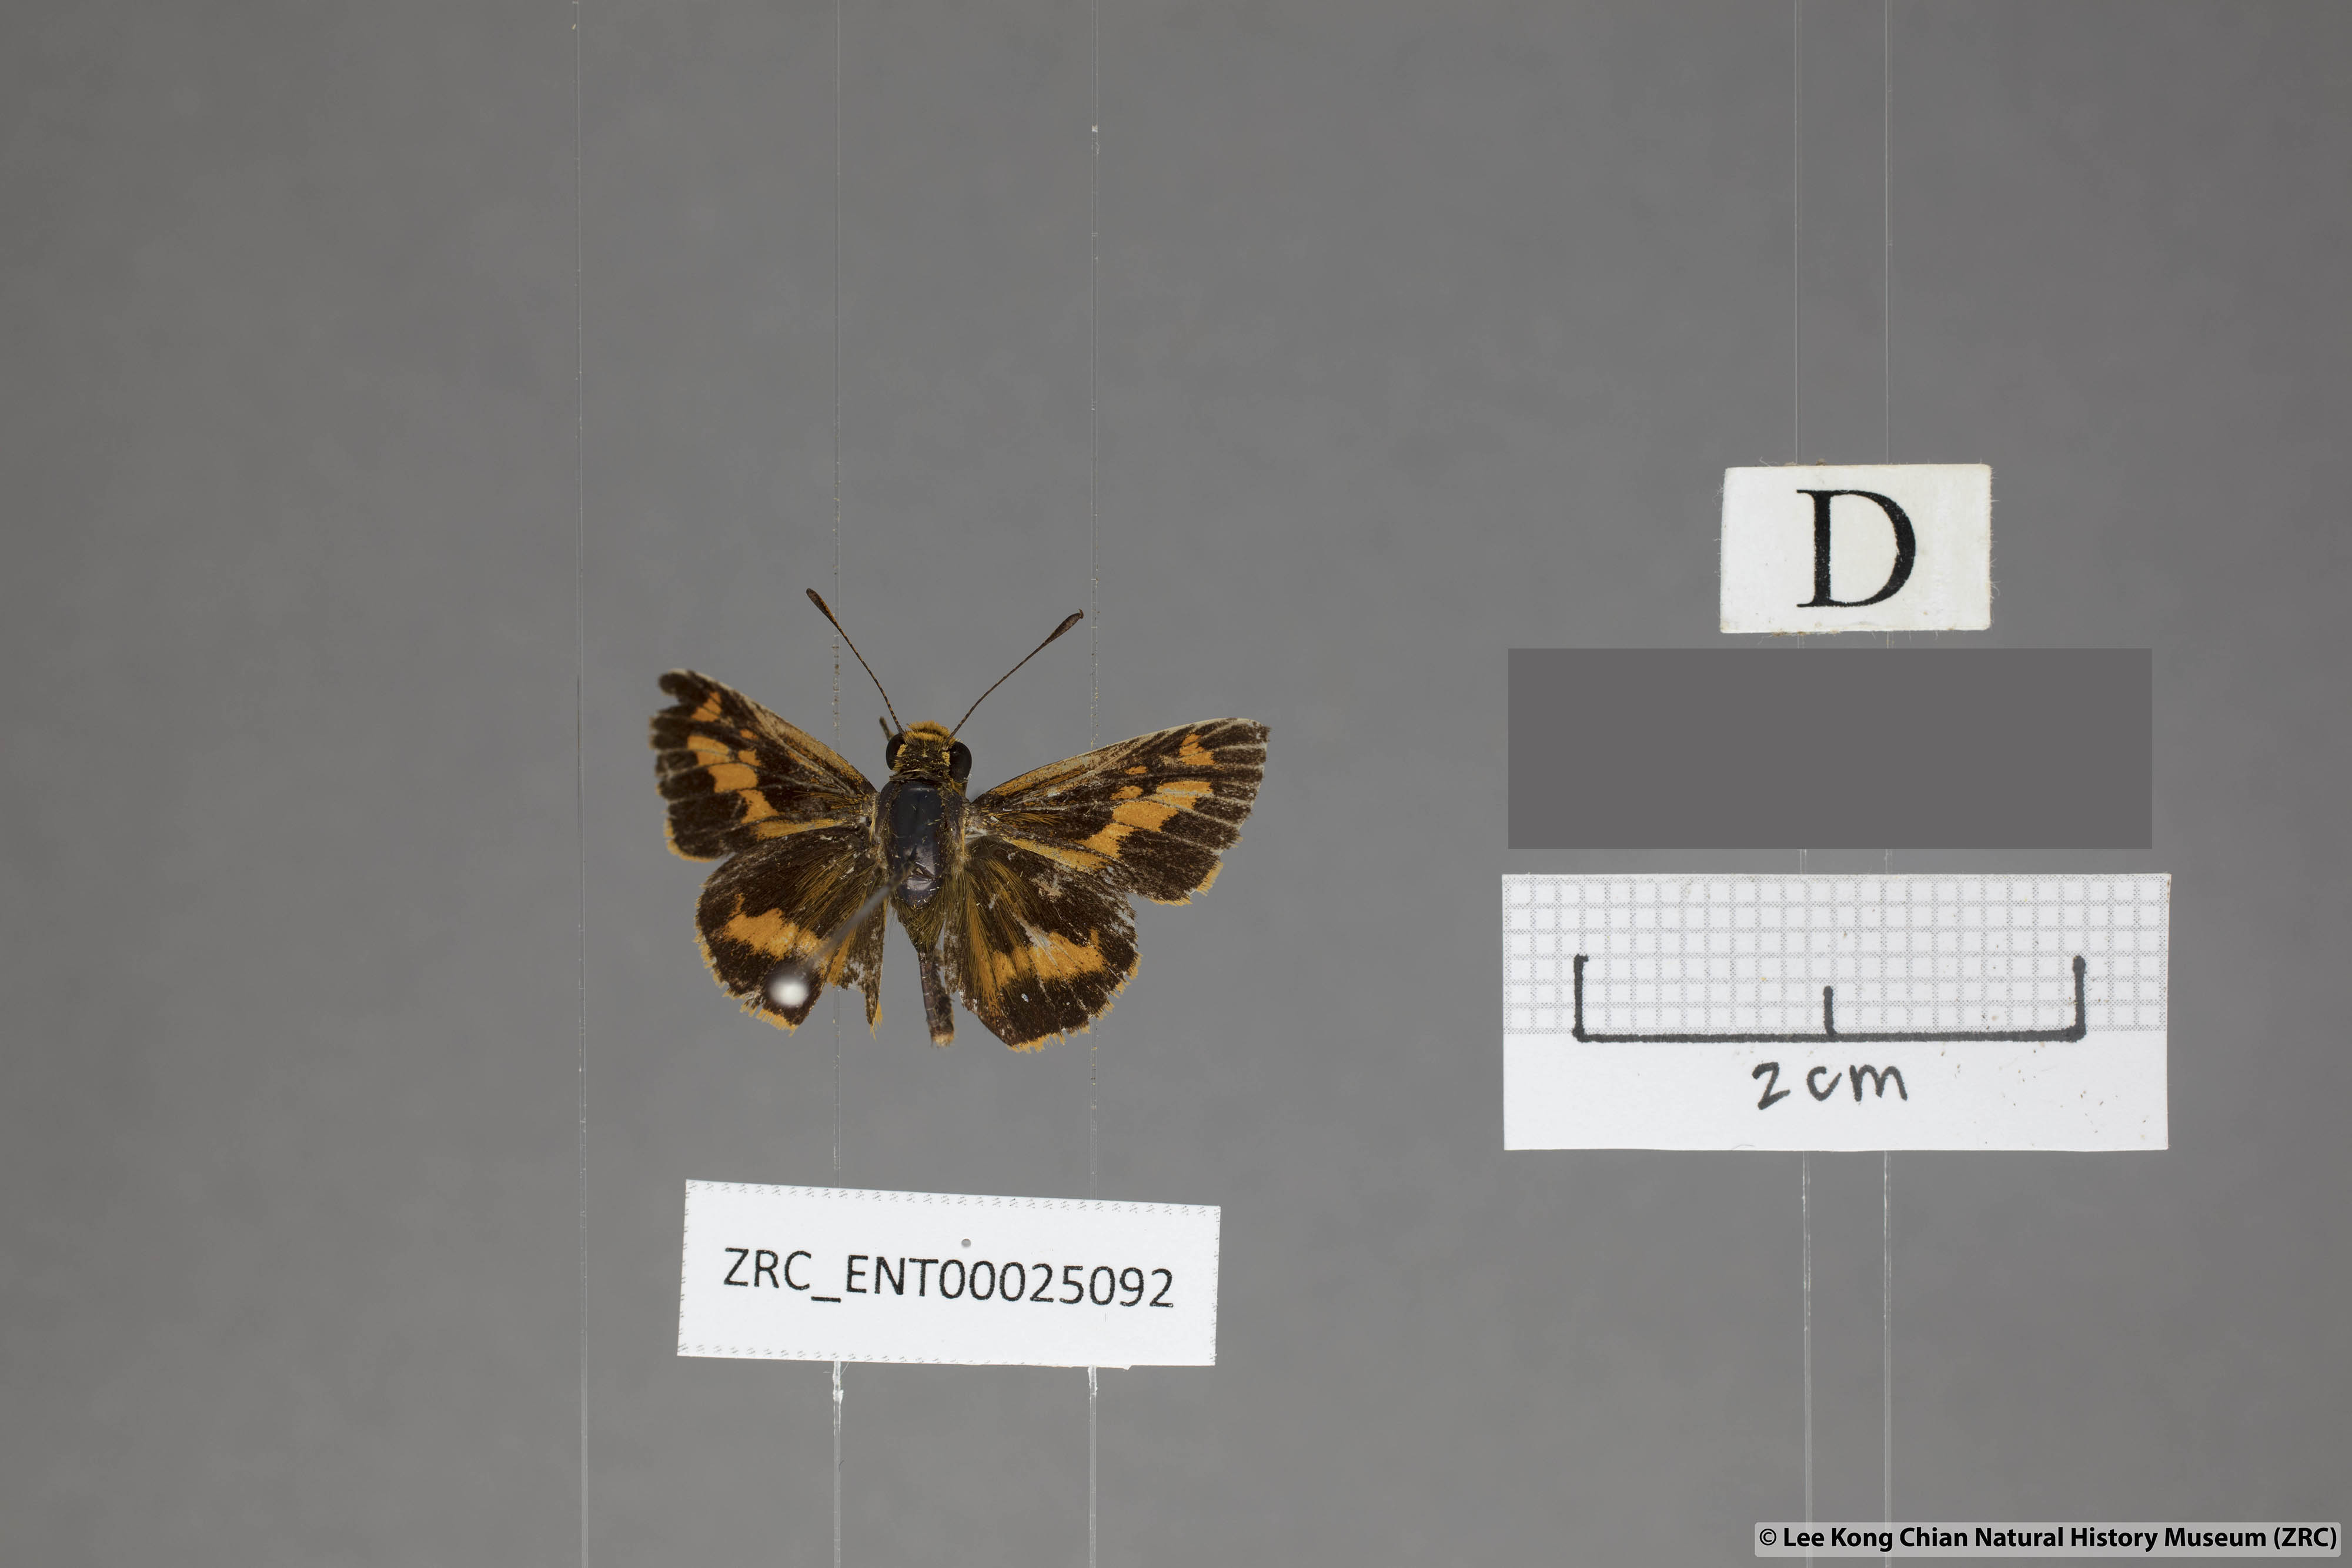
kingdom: Animalia
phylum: Arthropoda
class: Insecta
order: Lepidoptera
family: Hesperiidae
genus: Oriens
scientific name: Oriens goloides
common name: Smaller dartlet
